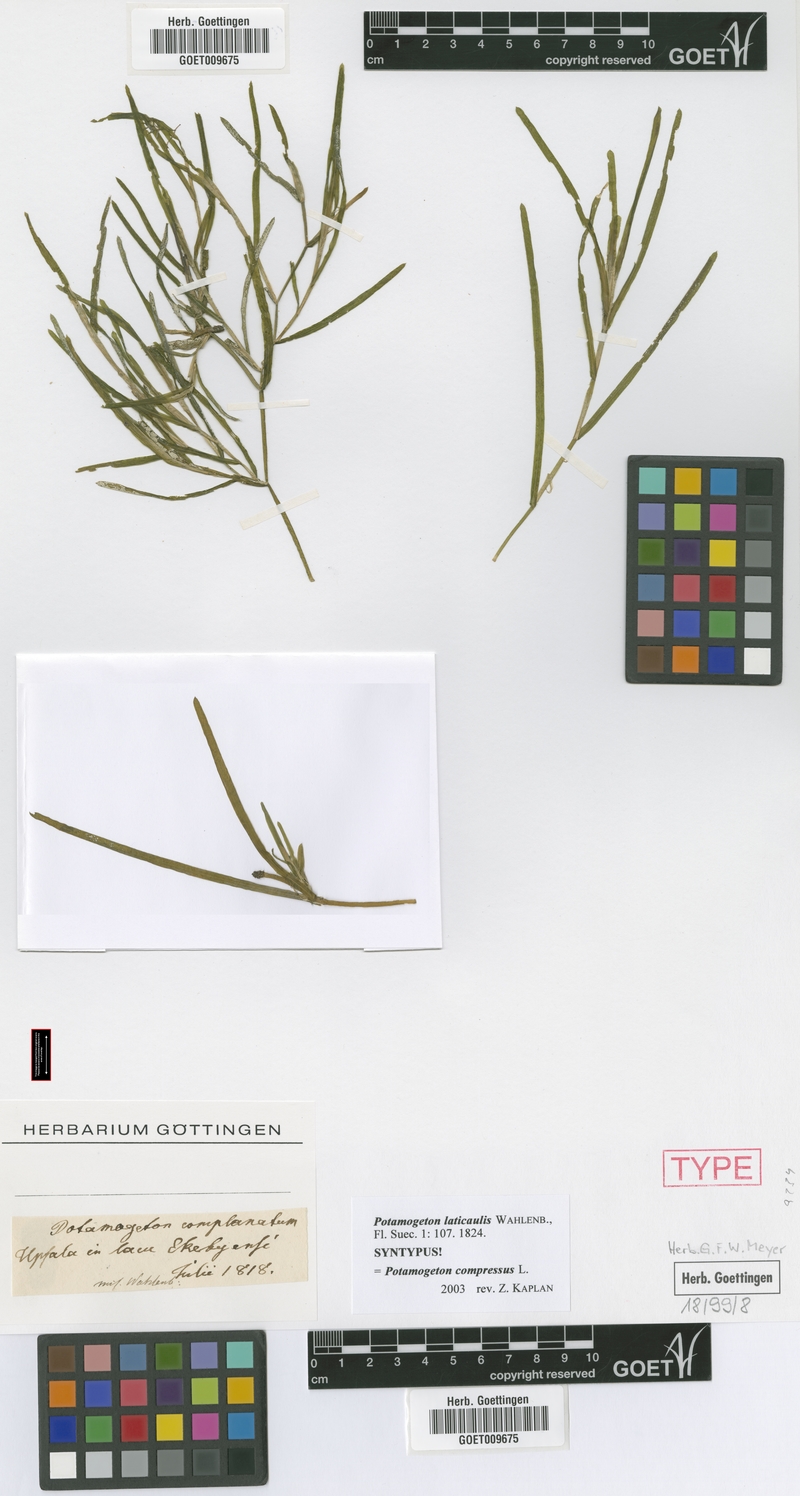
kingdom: Plantae
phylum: Tracheophyta
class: Liliopsida
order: Alismatales
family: Potamogetonaceae
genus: Potamogeton
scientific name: Potamogeton compressus
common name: Grass-wrack pondweed
